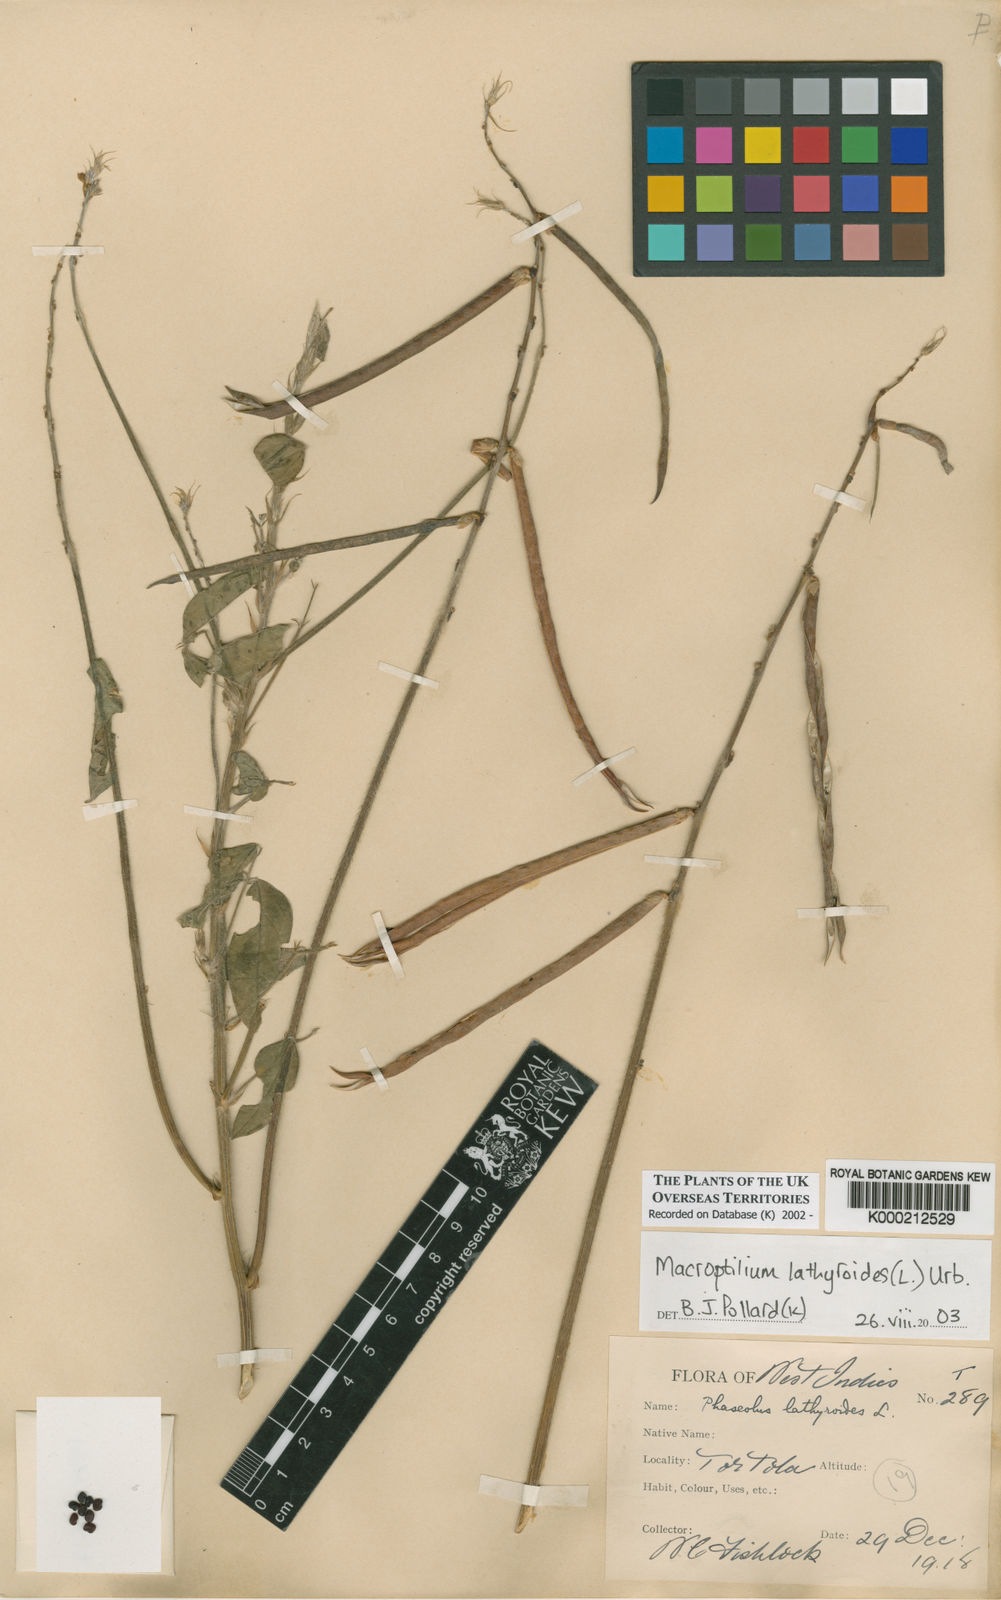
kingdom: Plantae
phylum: Tracheophyta
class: Magnoliopsida
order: Fabales
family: Fabaceae
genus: Macroptilium
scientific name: Macroptilium lathyroides
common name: Wild bushbean
